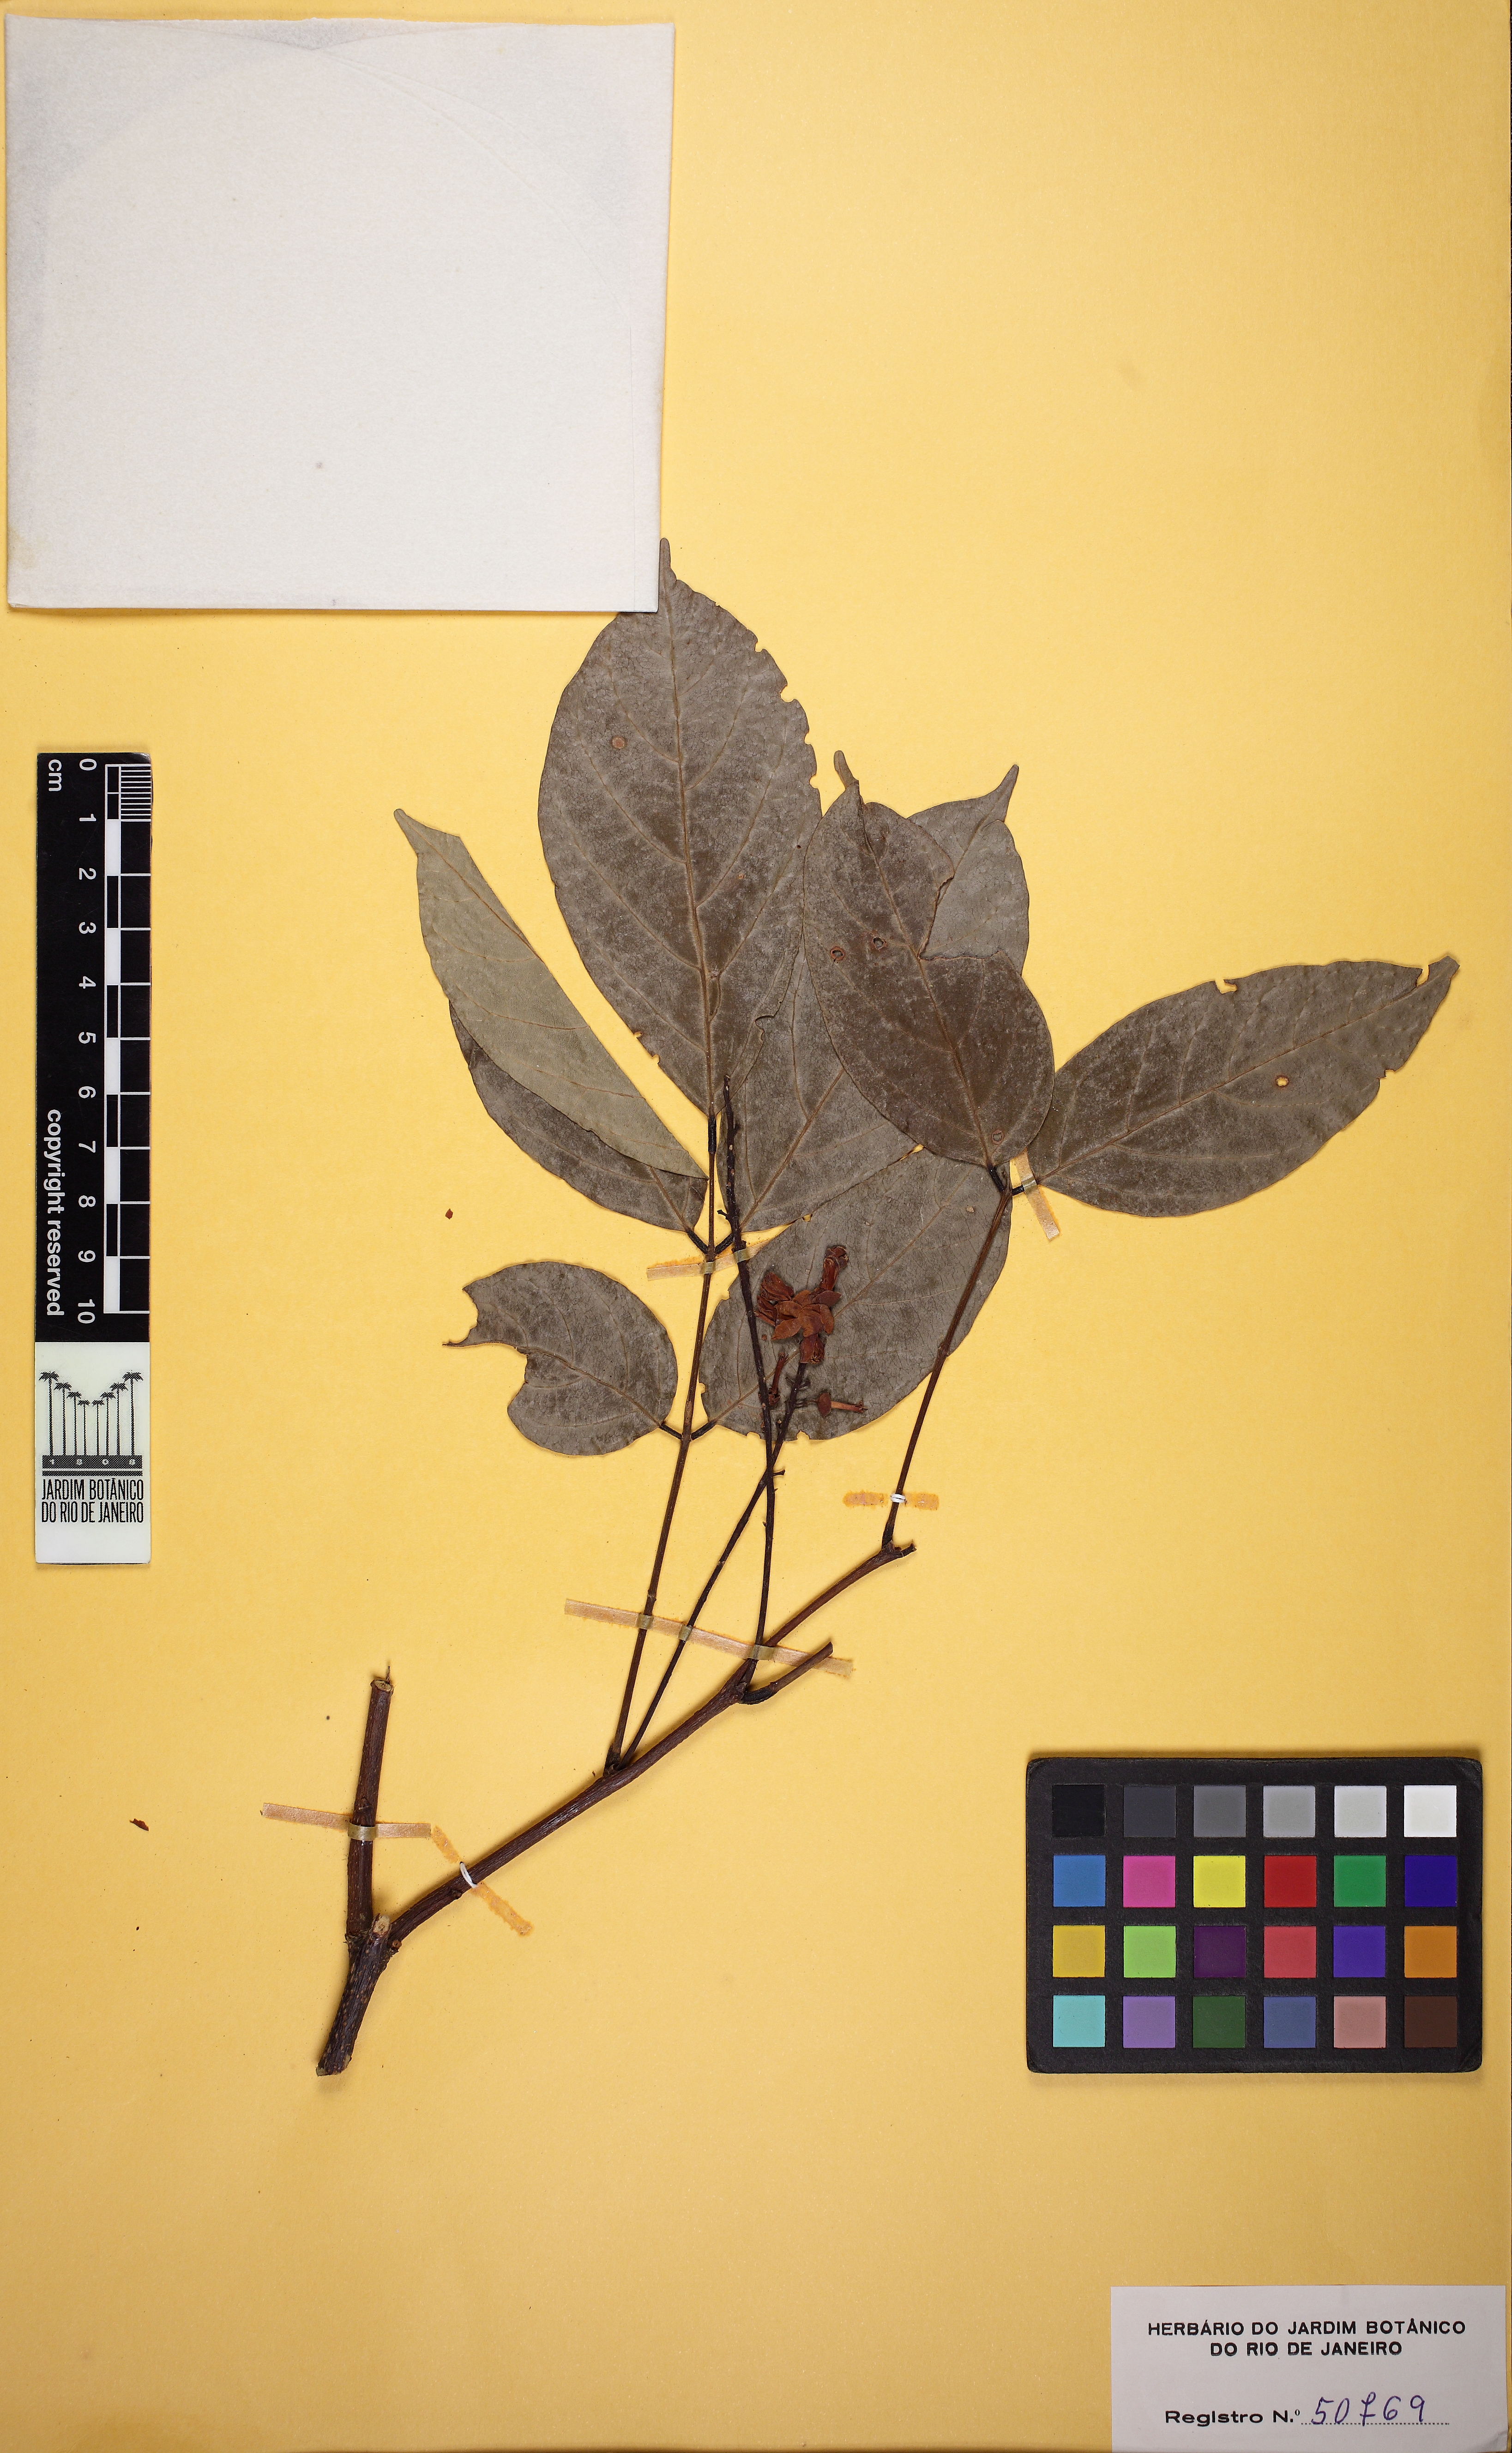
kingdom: Plantae
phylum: Tracheophyta
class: Magnoliopsida
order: Fabales
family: Fabaceae
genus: Lonchocarpus
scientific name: Lonchocarpus cultratus
